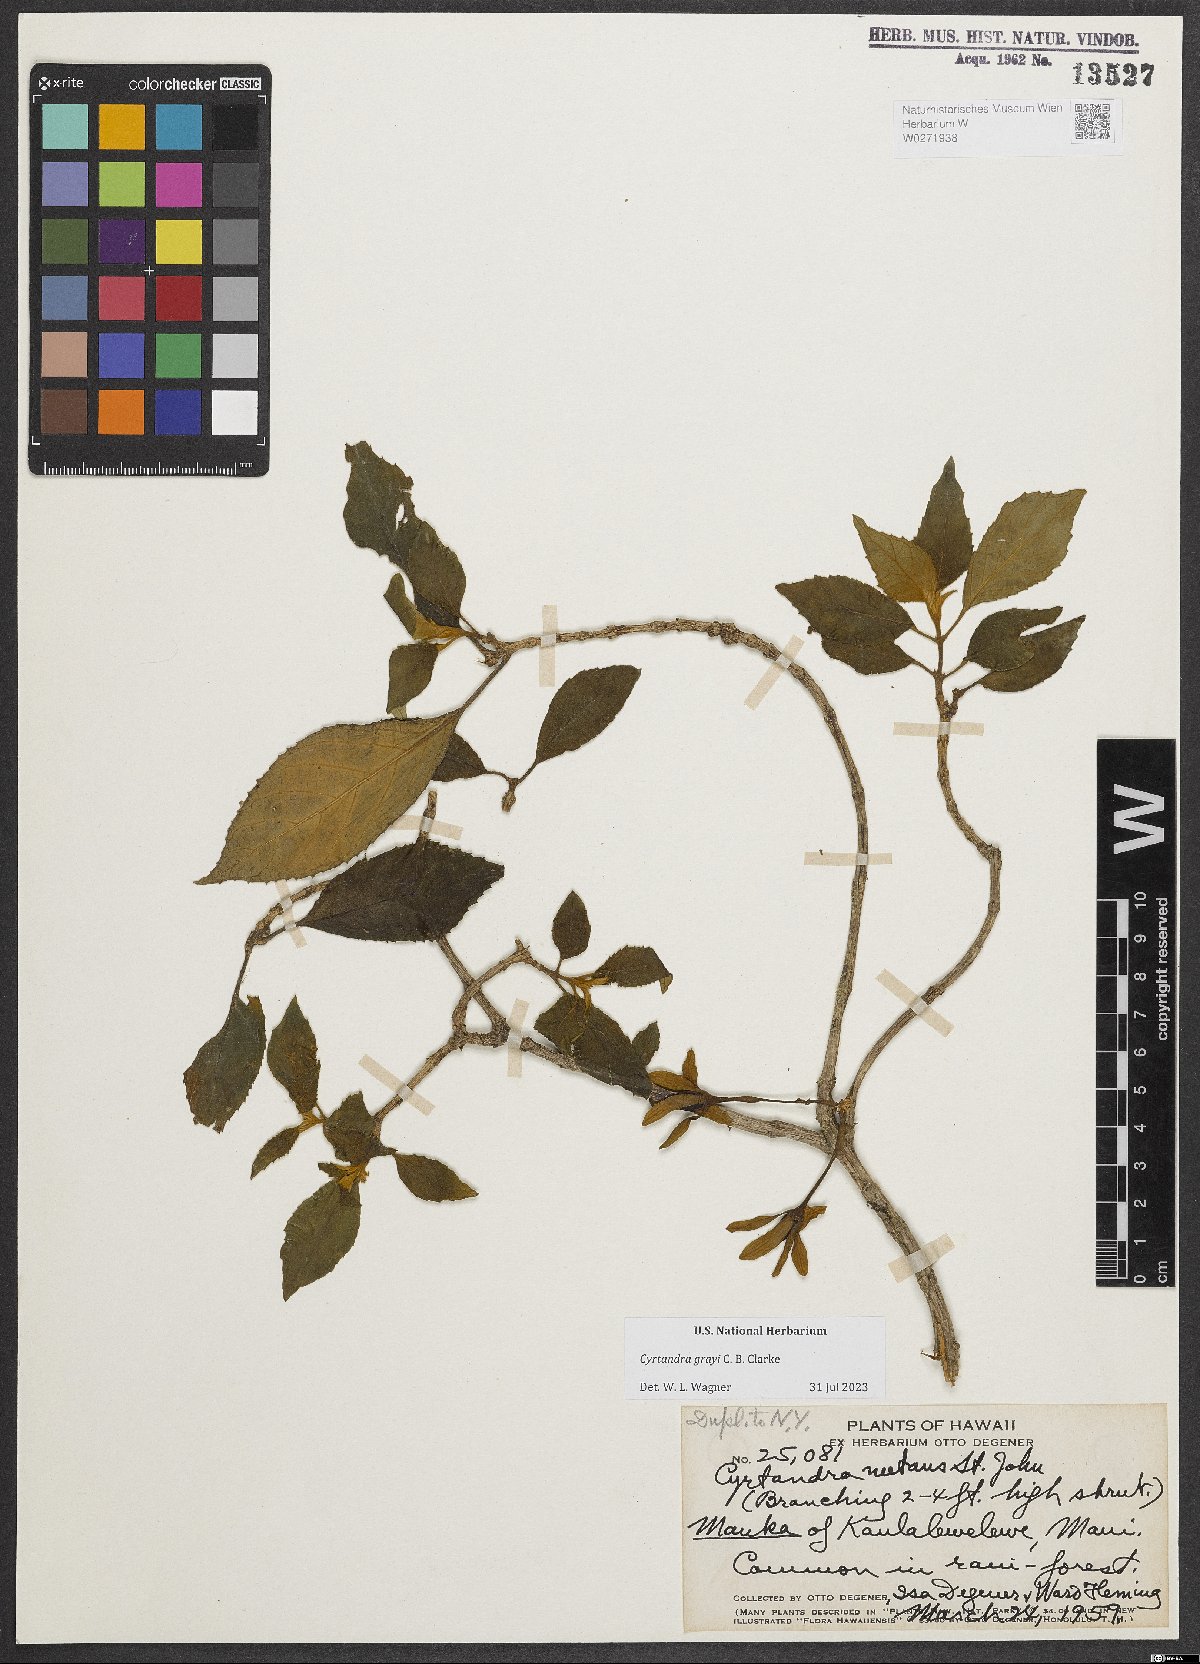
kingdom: Plantae
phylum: Tracheophyta
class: Magnoliopsida
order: Lamiales
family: Gesneriaceae
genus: Cyrtandra
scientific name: Cyrtandra grayi
